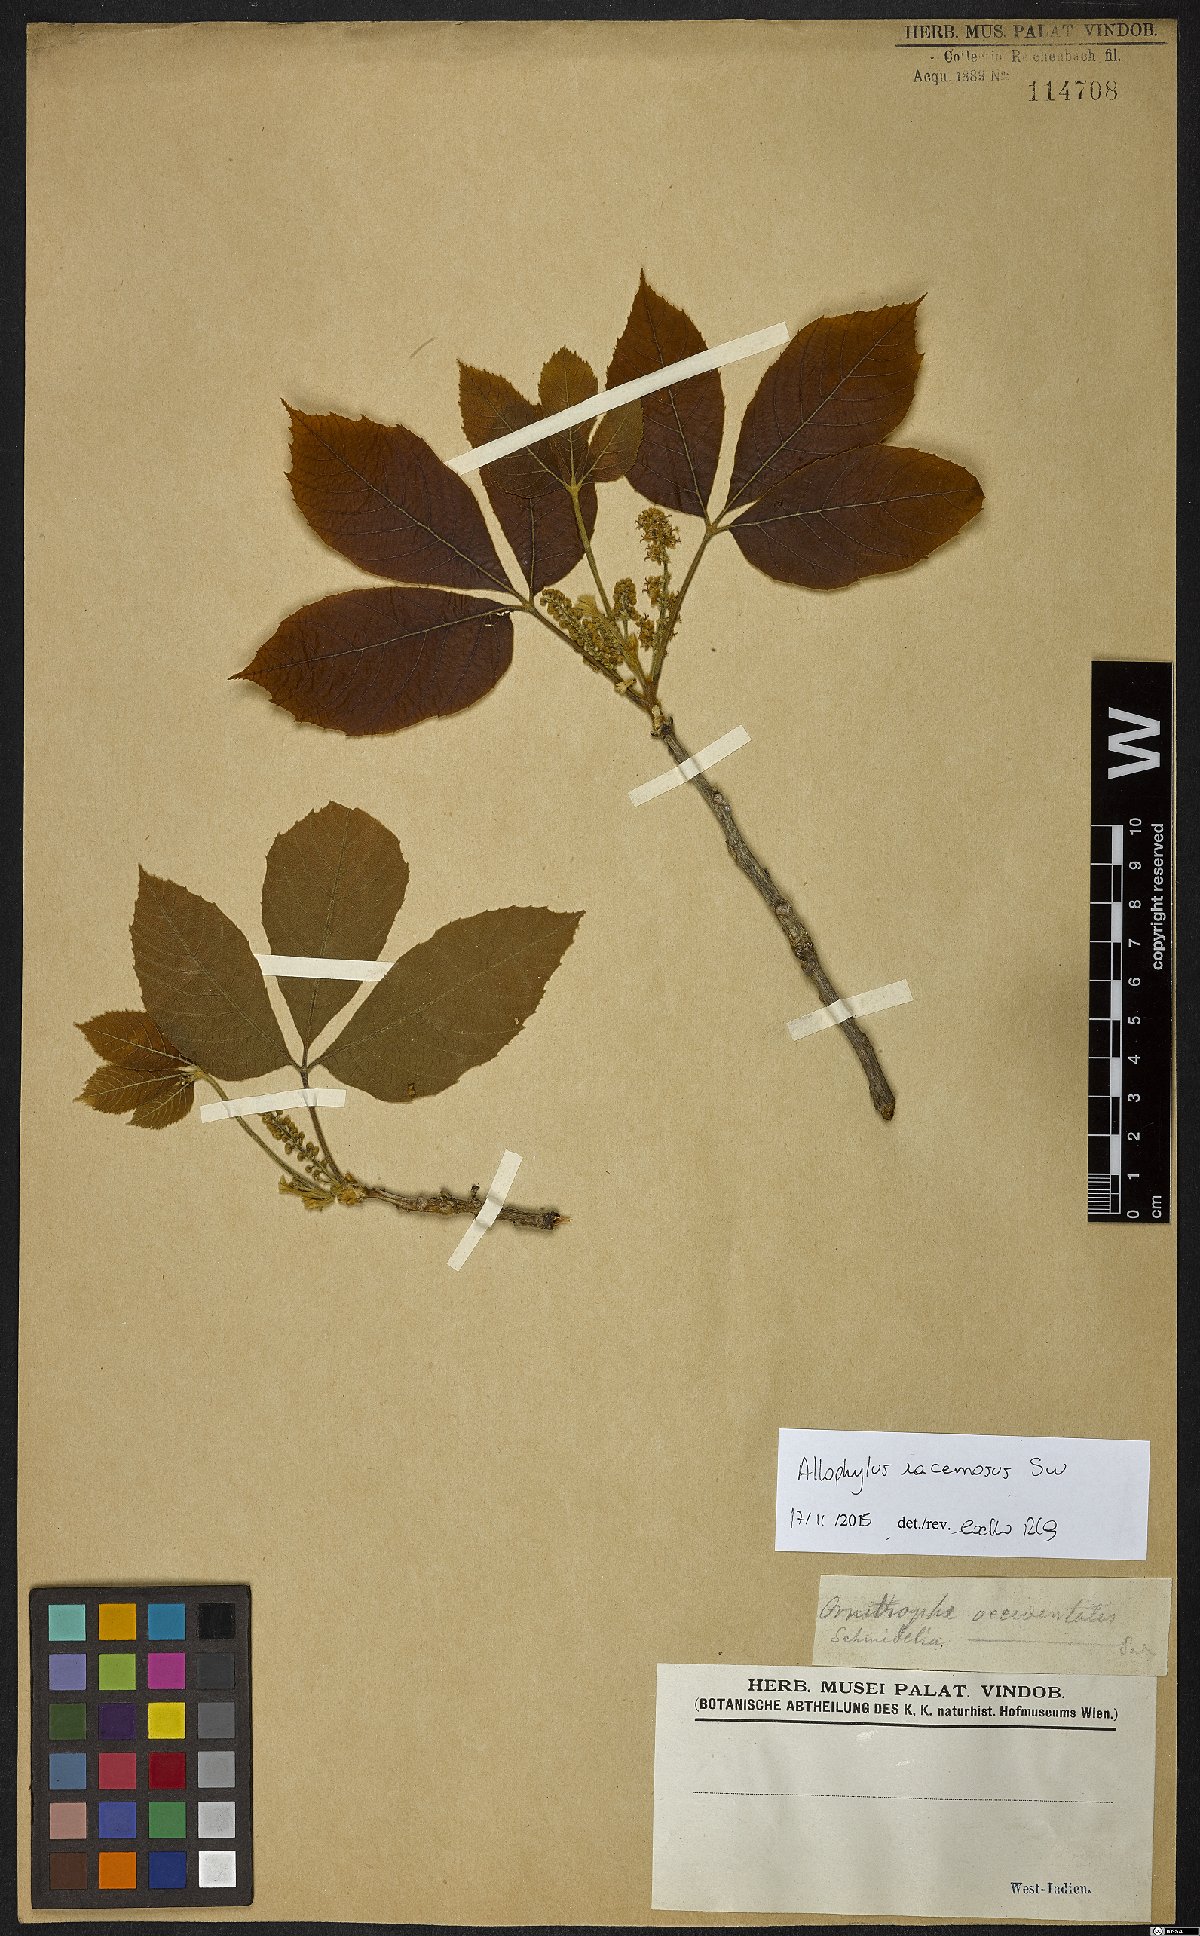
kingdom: Plantae
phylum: Tracheophyta
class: Magnoliopsida
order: Sapindales
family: Sapindaceae
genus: Allophylus
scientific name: Allophylus racemosus
